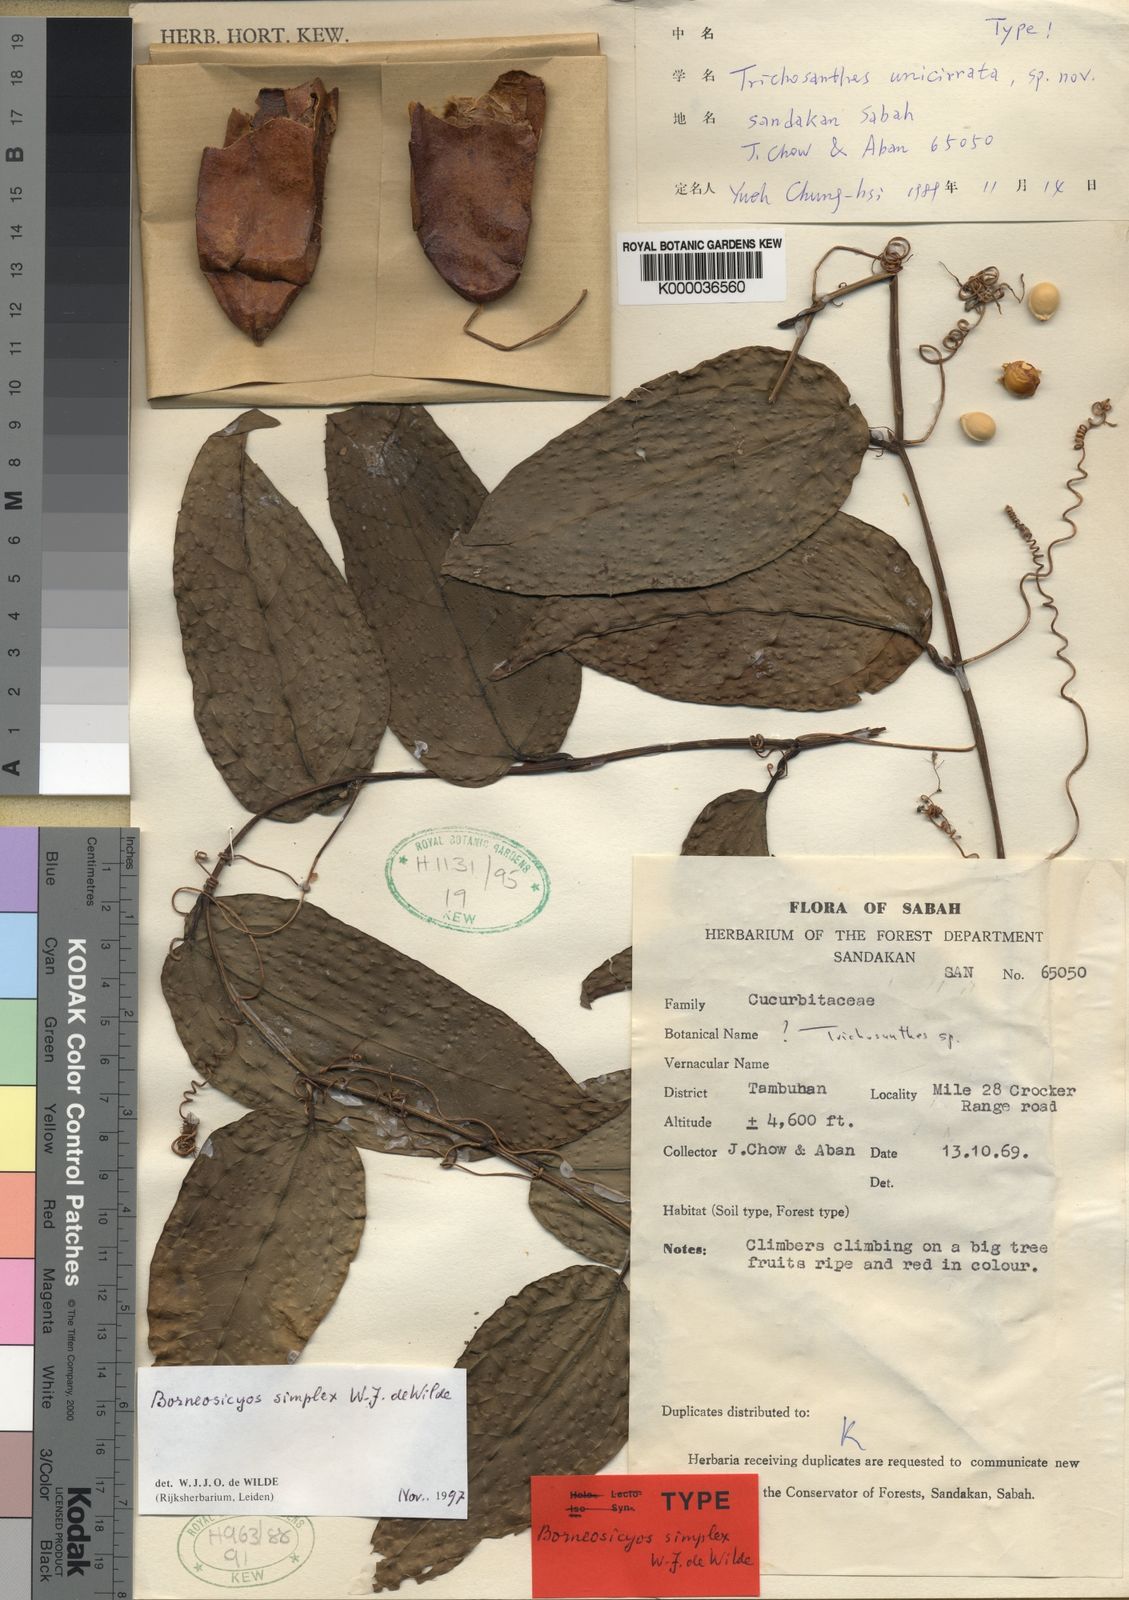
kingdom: Plantae
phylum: Tracheophyta
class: Magnoliopsida
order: Cucurbitales
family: Cucurbitaceae
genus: Borneosicyos
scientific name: Borneosicyos simplex
